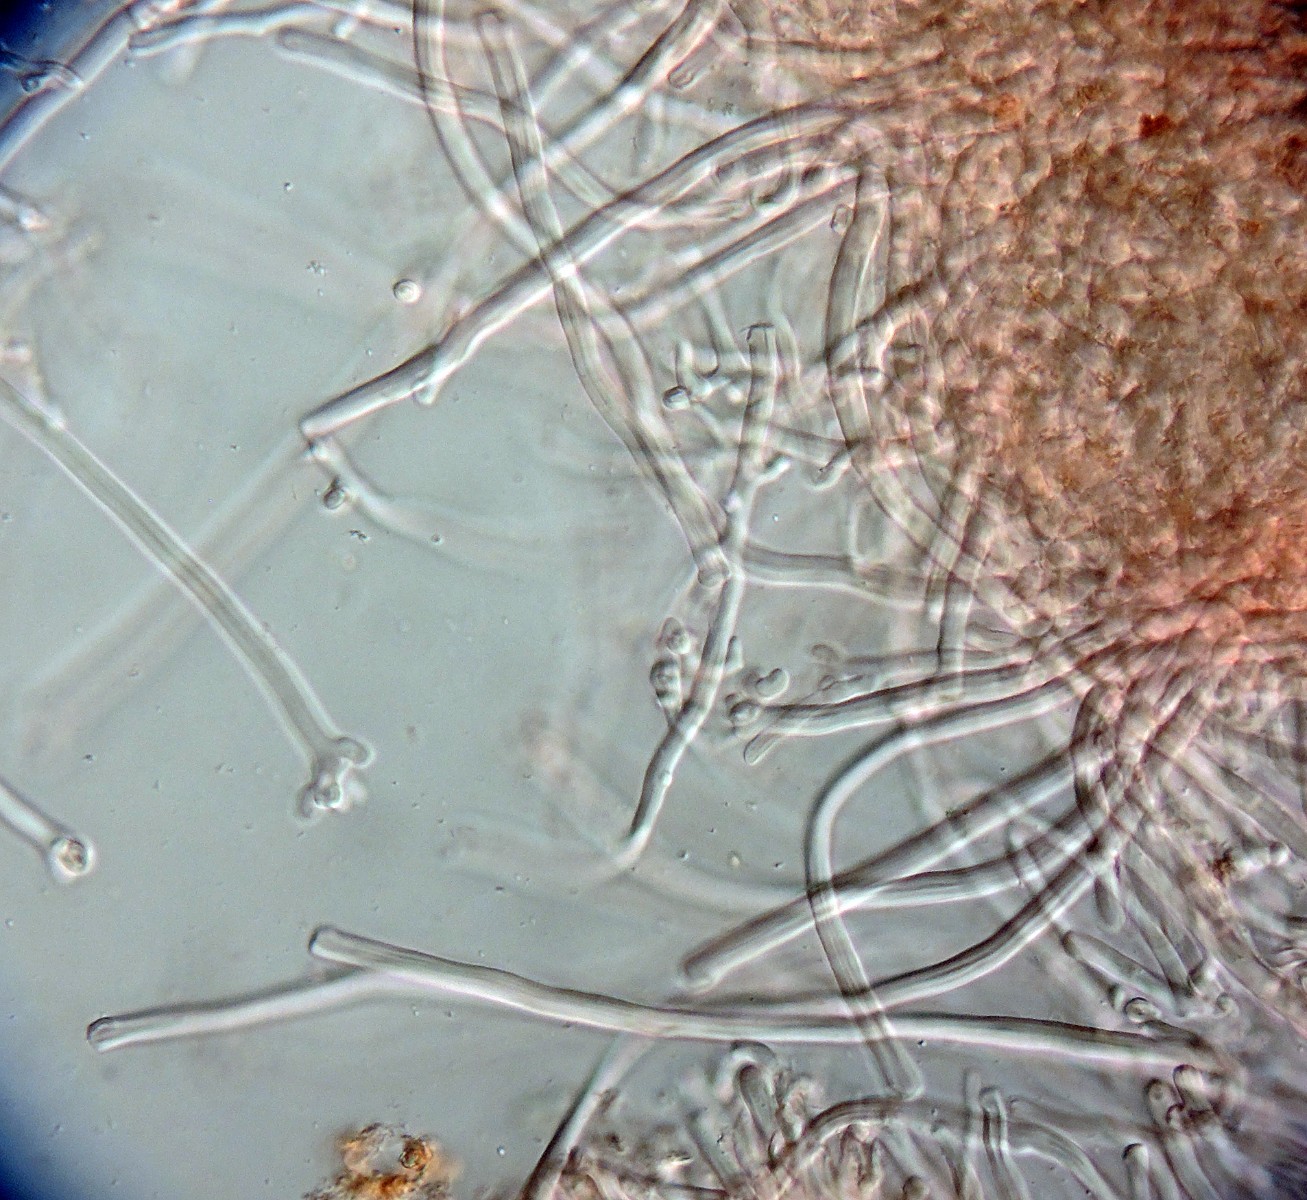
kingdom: Fungi
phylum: Basidiomycota
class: Agaricomycetes
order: Polyporales
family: Dacryobolaceae
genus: Oligoporus
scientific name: Oligoporus wakefieldiae
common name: række-kødporesvamp
